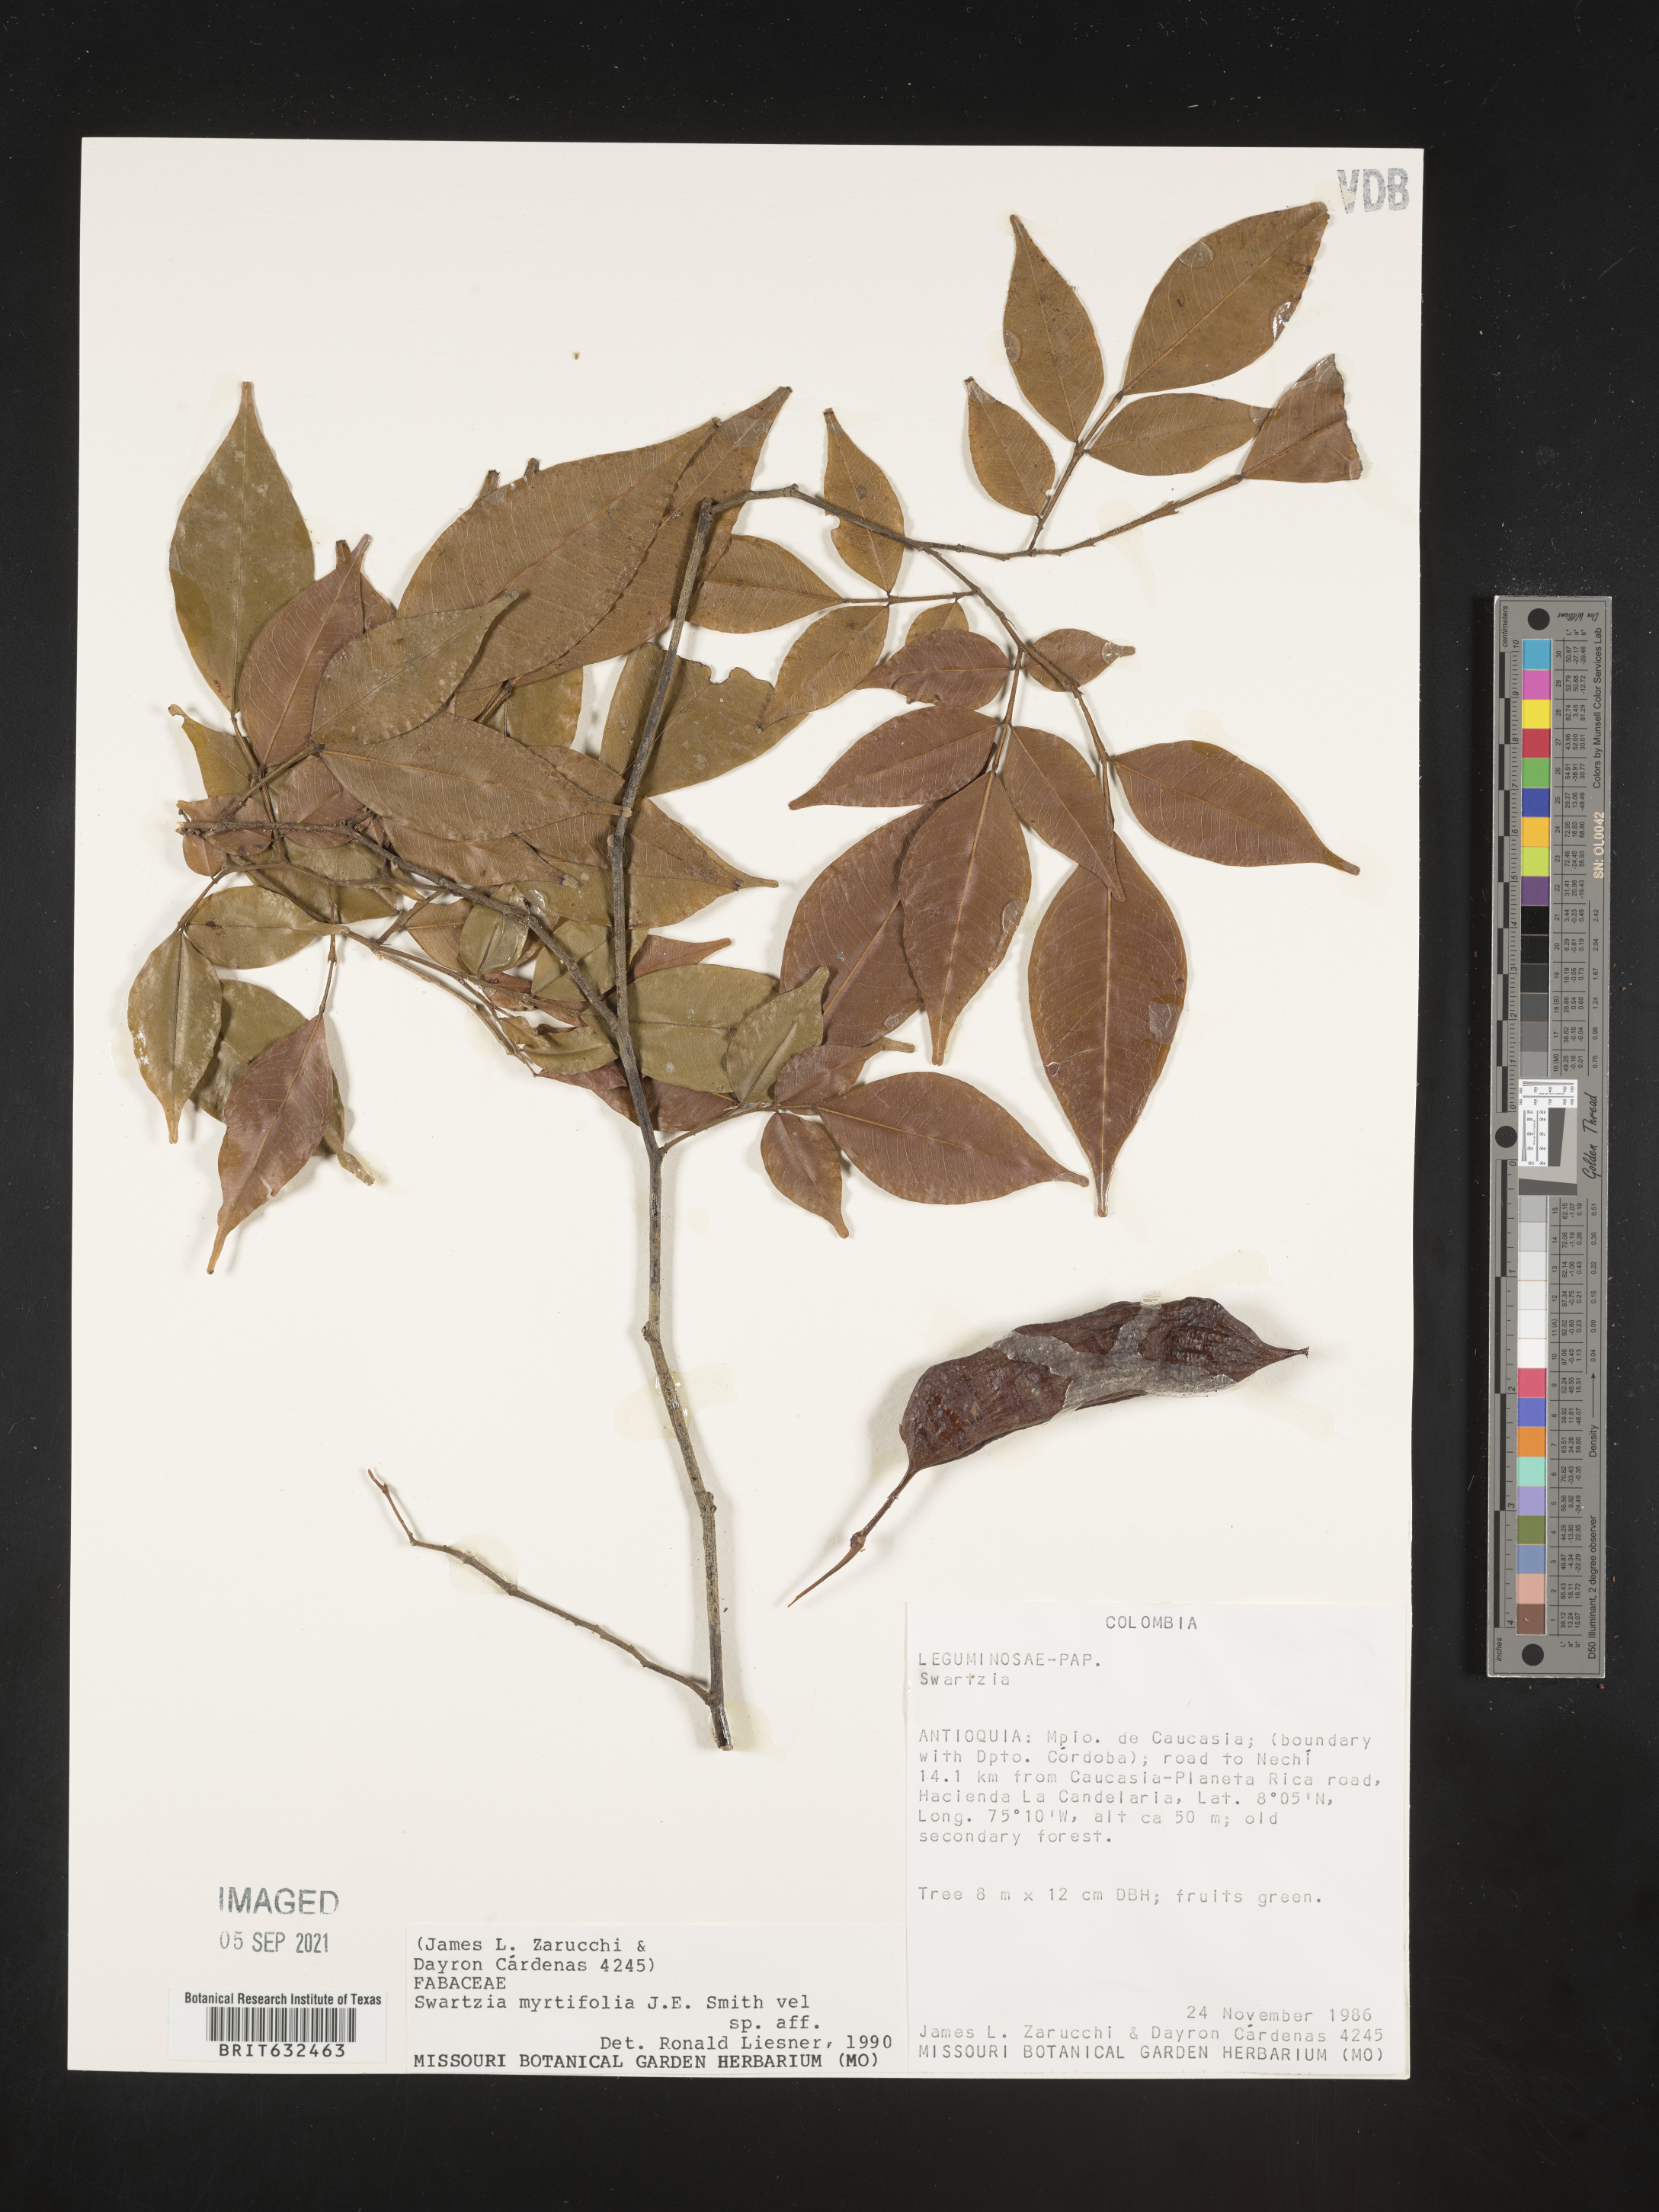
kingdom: Plantae
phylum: Tracheophyta
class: Magnoliopsida
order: Fabales
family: Fabaceae
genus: Swartzia
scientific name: Swartzia
